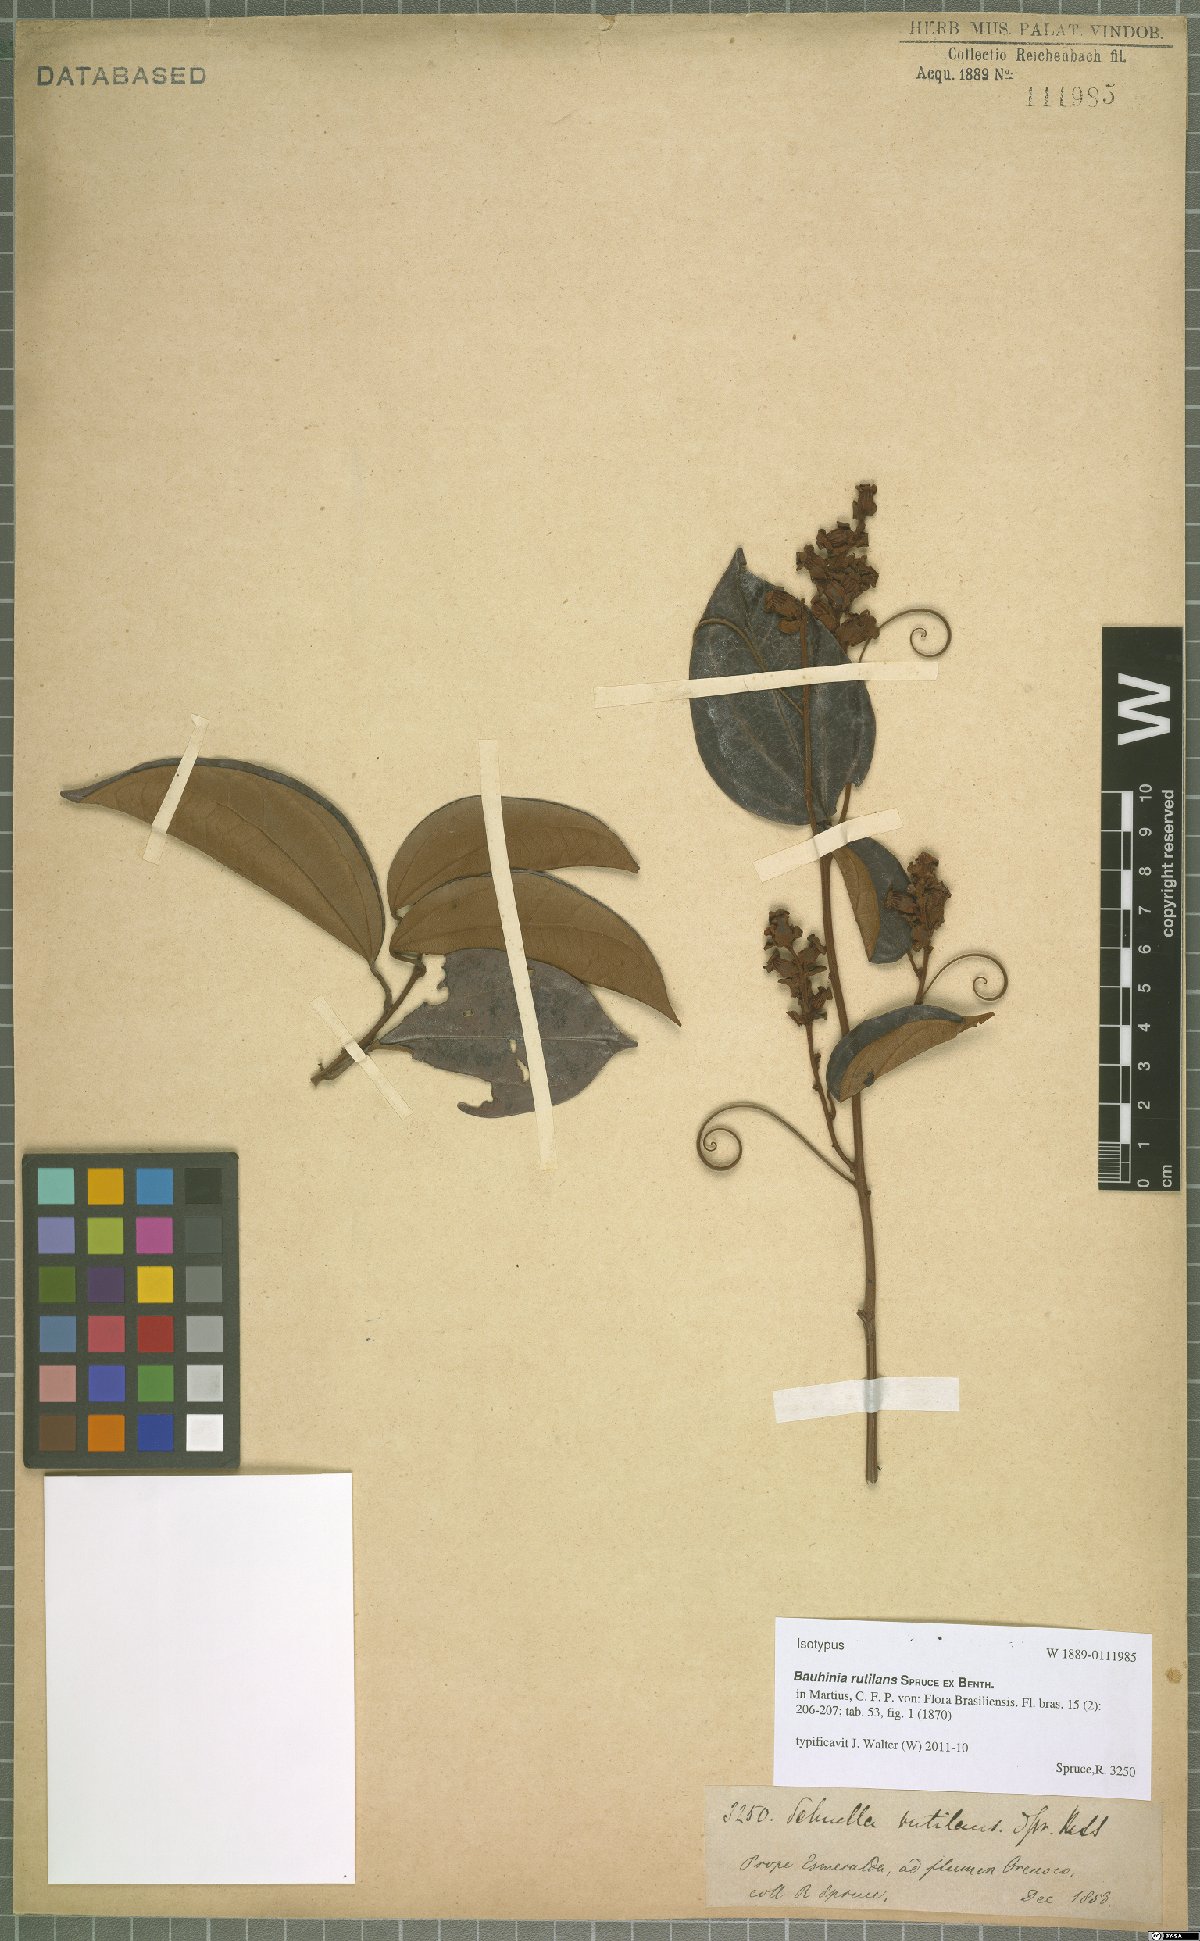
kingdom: Plantae
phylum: Tracheophyta
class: Magnoliopsida
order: Fabales
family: Fabaceae
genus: Schnella
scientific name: Schnella rutilans
